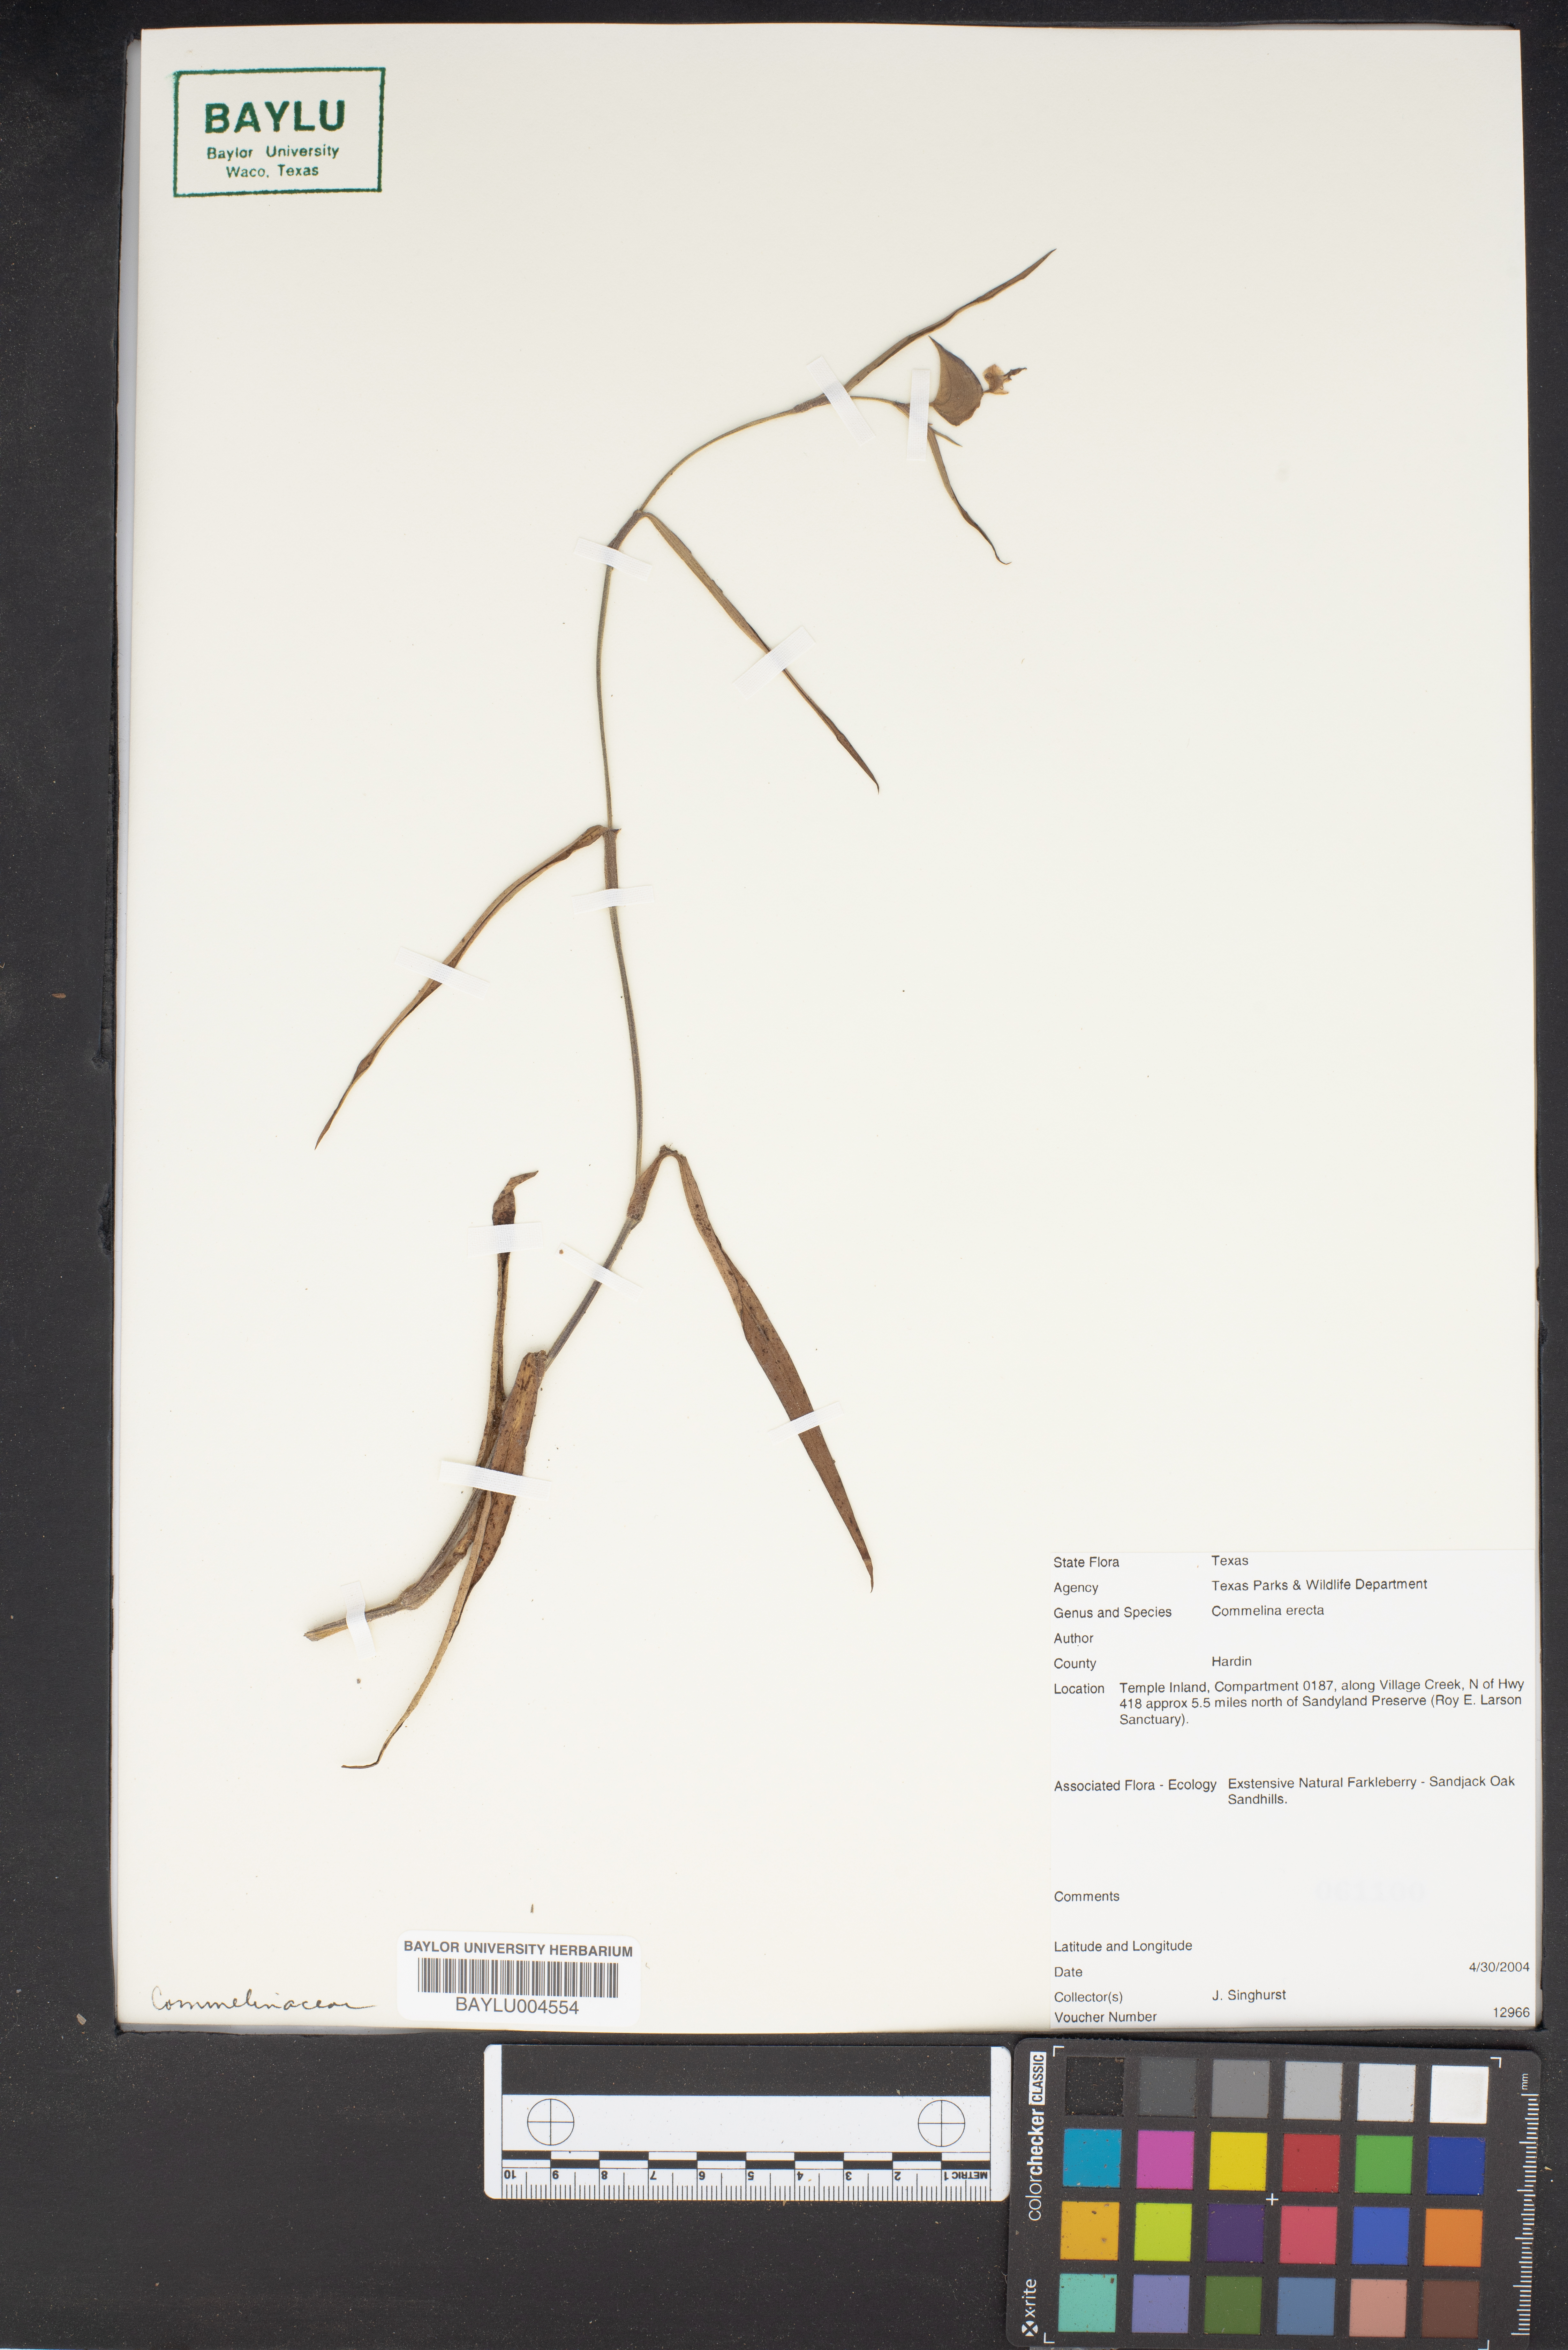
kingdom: Plantae
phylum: Tracheophyta
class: Liliopsida
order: Commelinales
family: Commelinaceae
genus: Commelina
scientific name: Commelina erecta
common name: Blousel blommetjie
